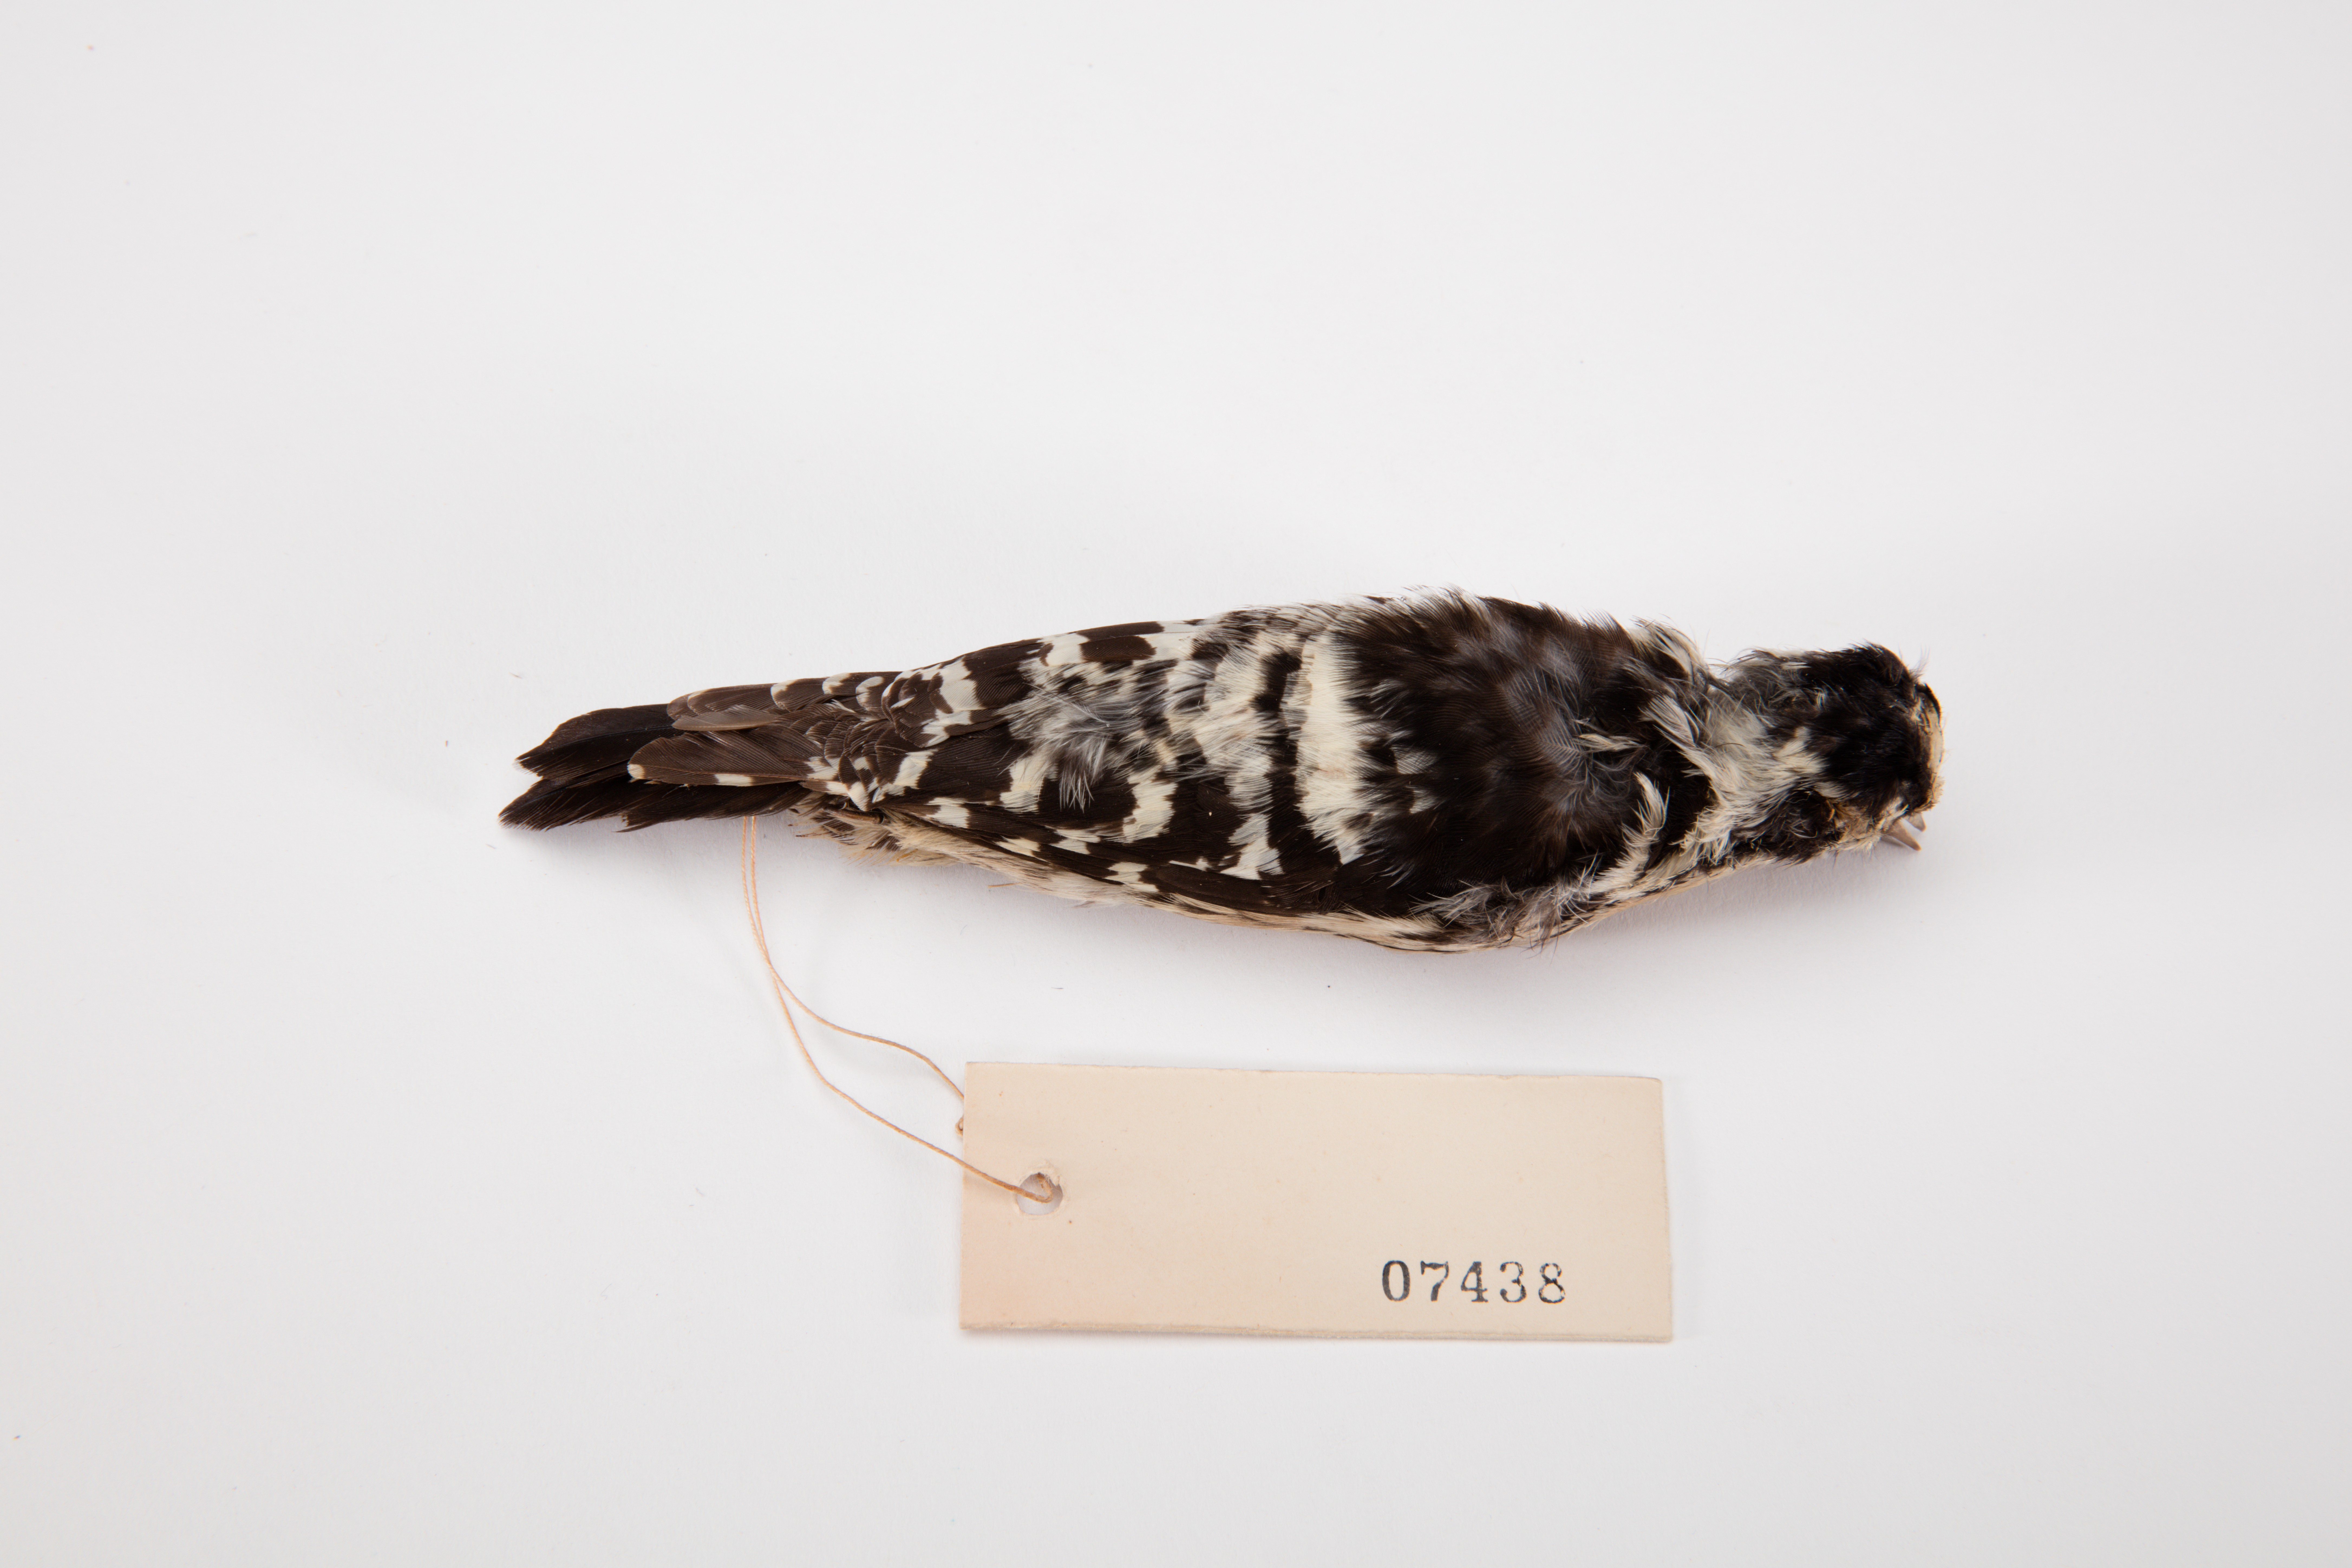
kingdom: Animalia
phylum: Chordata
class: Aves
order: Piciformes
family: Picidae
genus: Dryobates
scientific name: Dryobates minor
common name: Lesser spotted woodpecker
